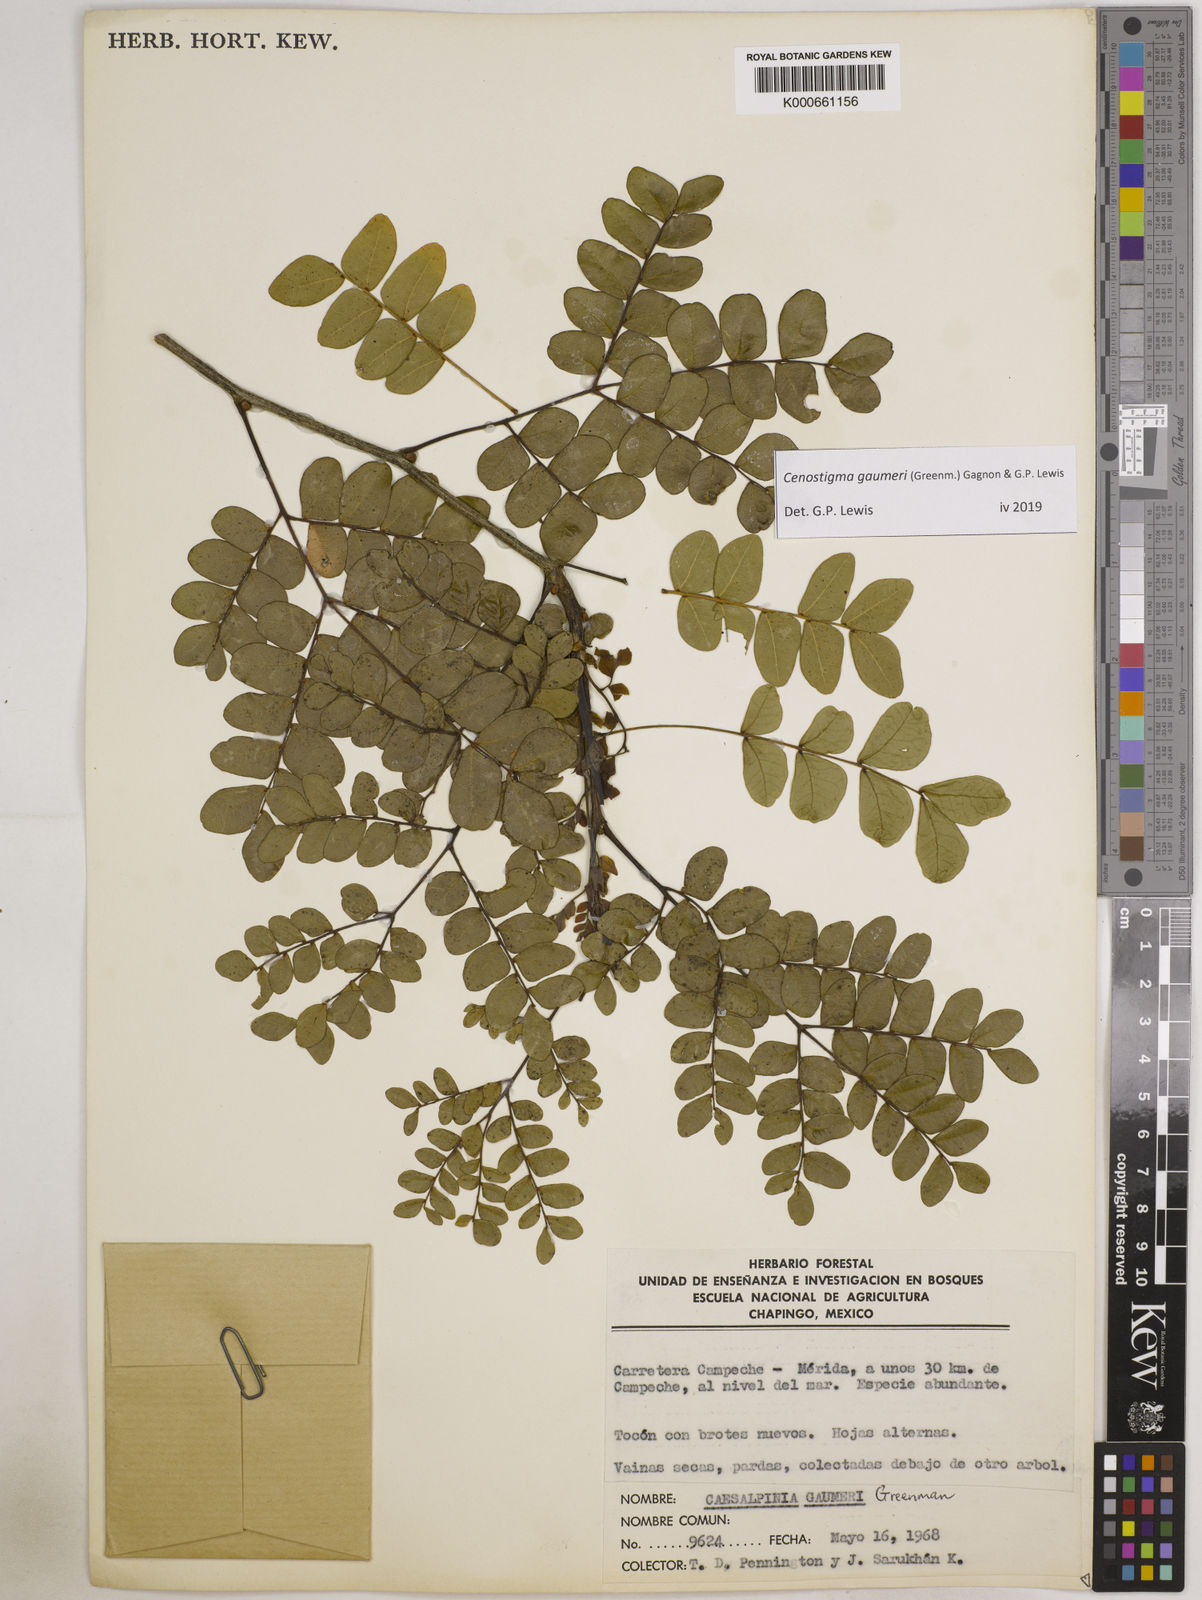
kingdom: Plantae
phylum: Tracheophyta
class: Magnoliopsida
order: Fabales
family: Fabaceae
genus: Cenostigma
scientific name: Cenostigma gaumeri
